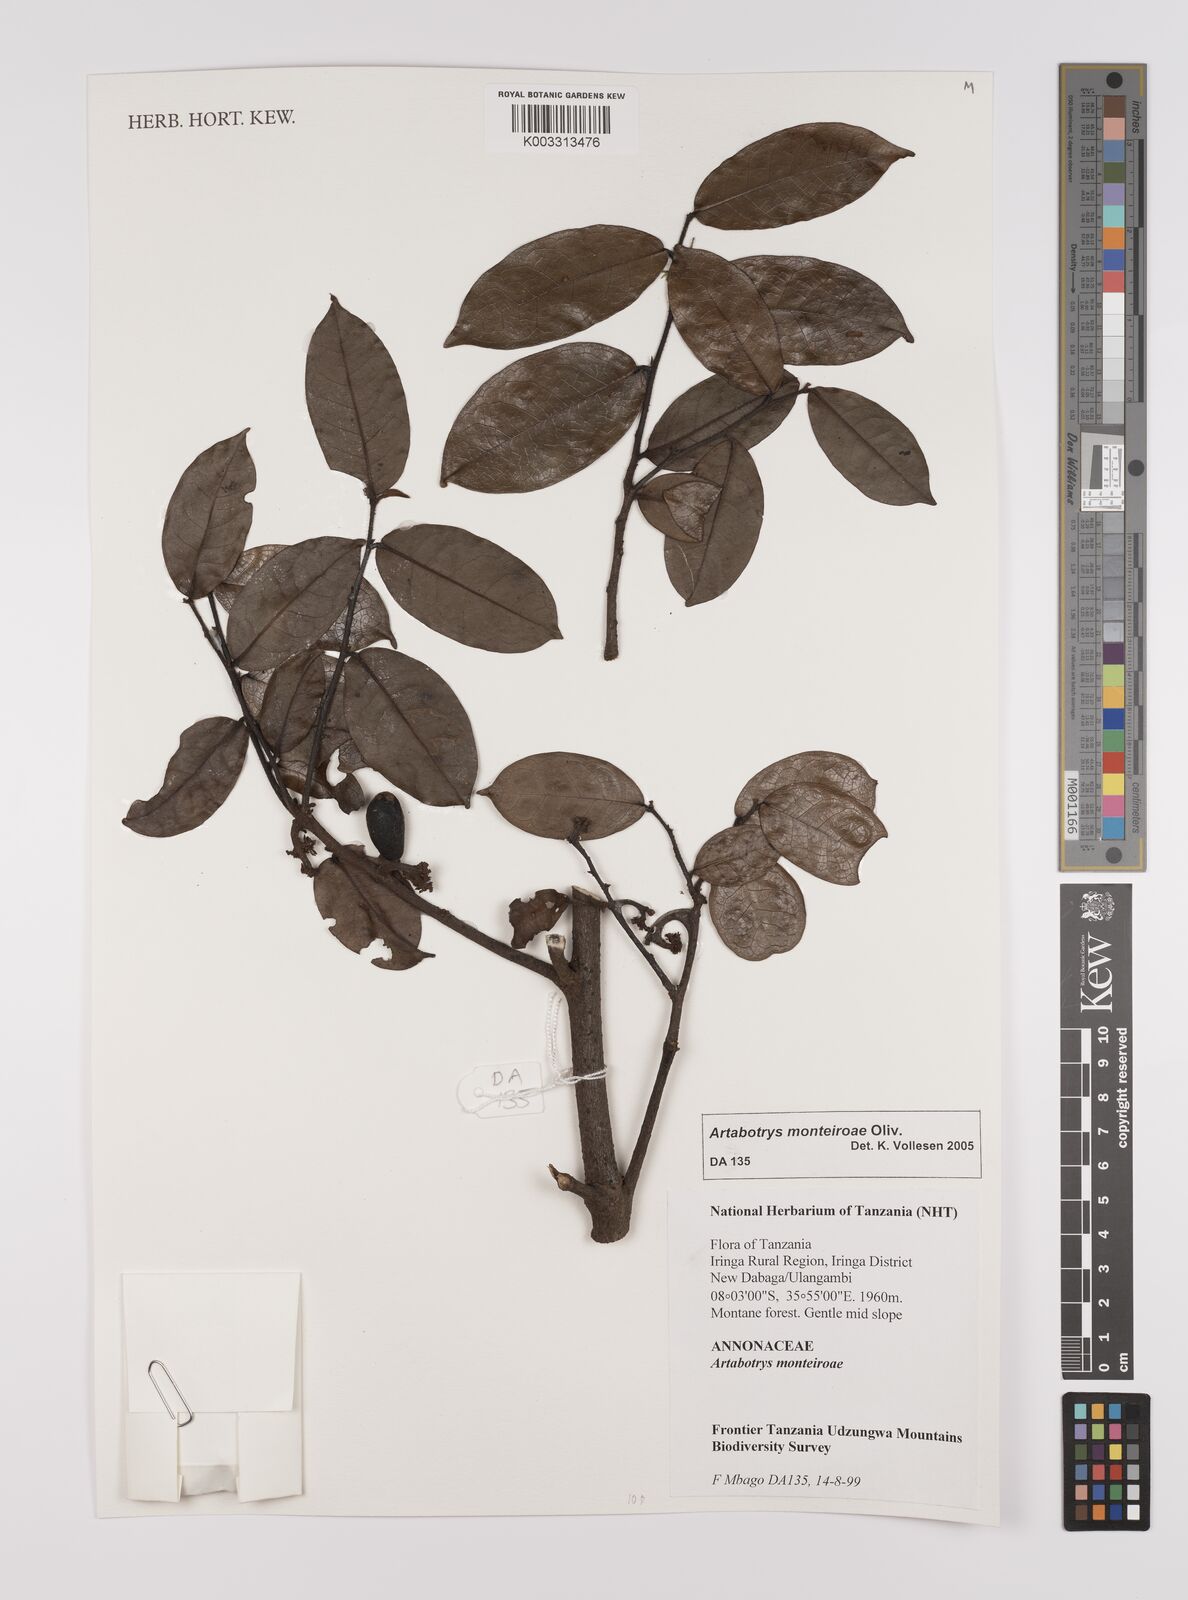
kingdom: Plantae
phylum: Tracheophyta
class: Magnoliopsida
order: Magnoliales
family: Annonaceae
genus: Artabotrys
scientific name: Artabotrys monteiroae
